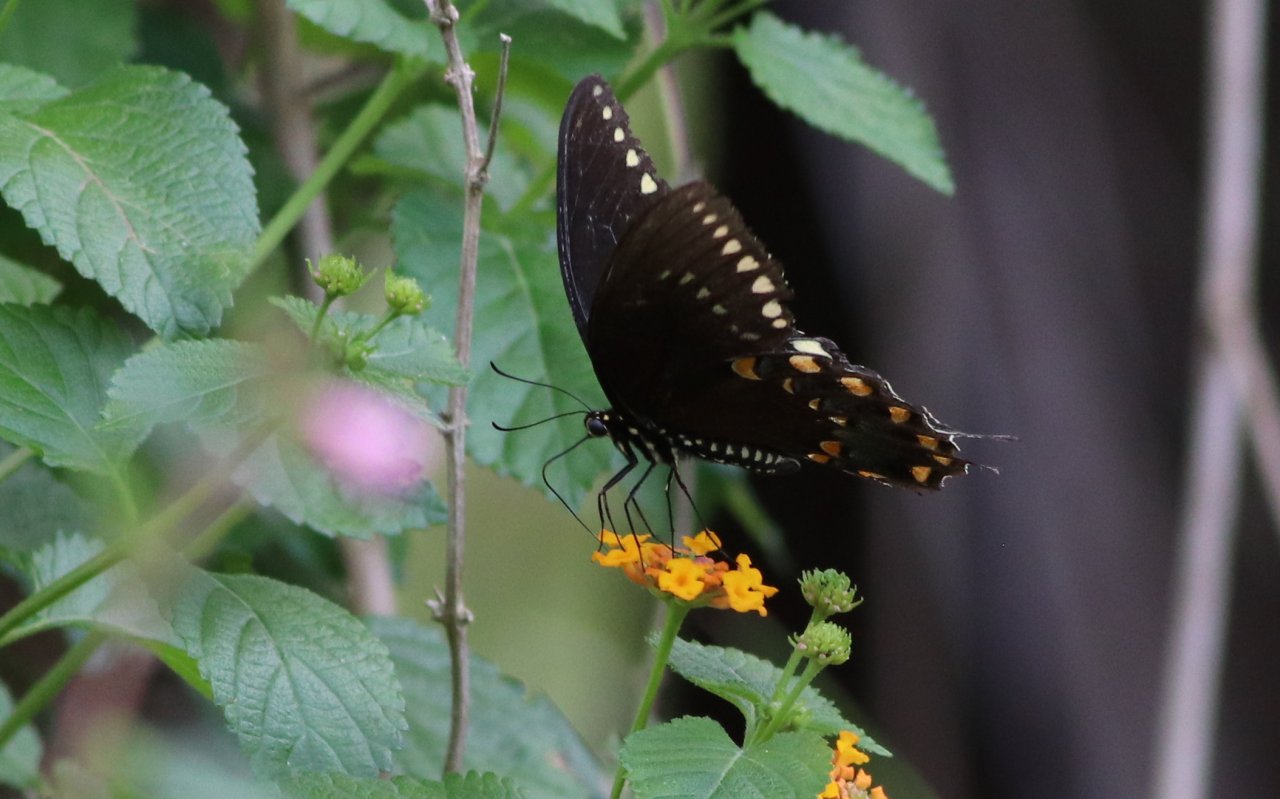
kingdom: Animalia
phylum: Arthropoda
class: Insecta
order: Lepidoptera
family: Papilionidae
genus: Pterourus
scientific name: Pterourus troilus
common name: Spicebush Swallowtail
